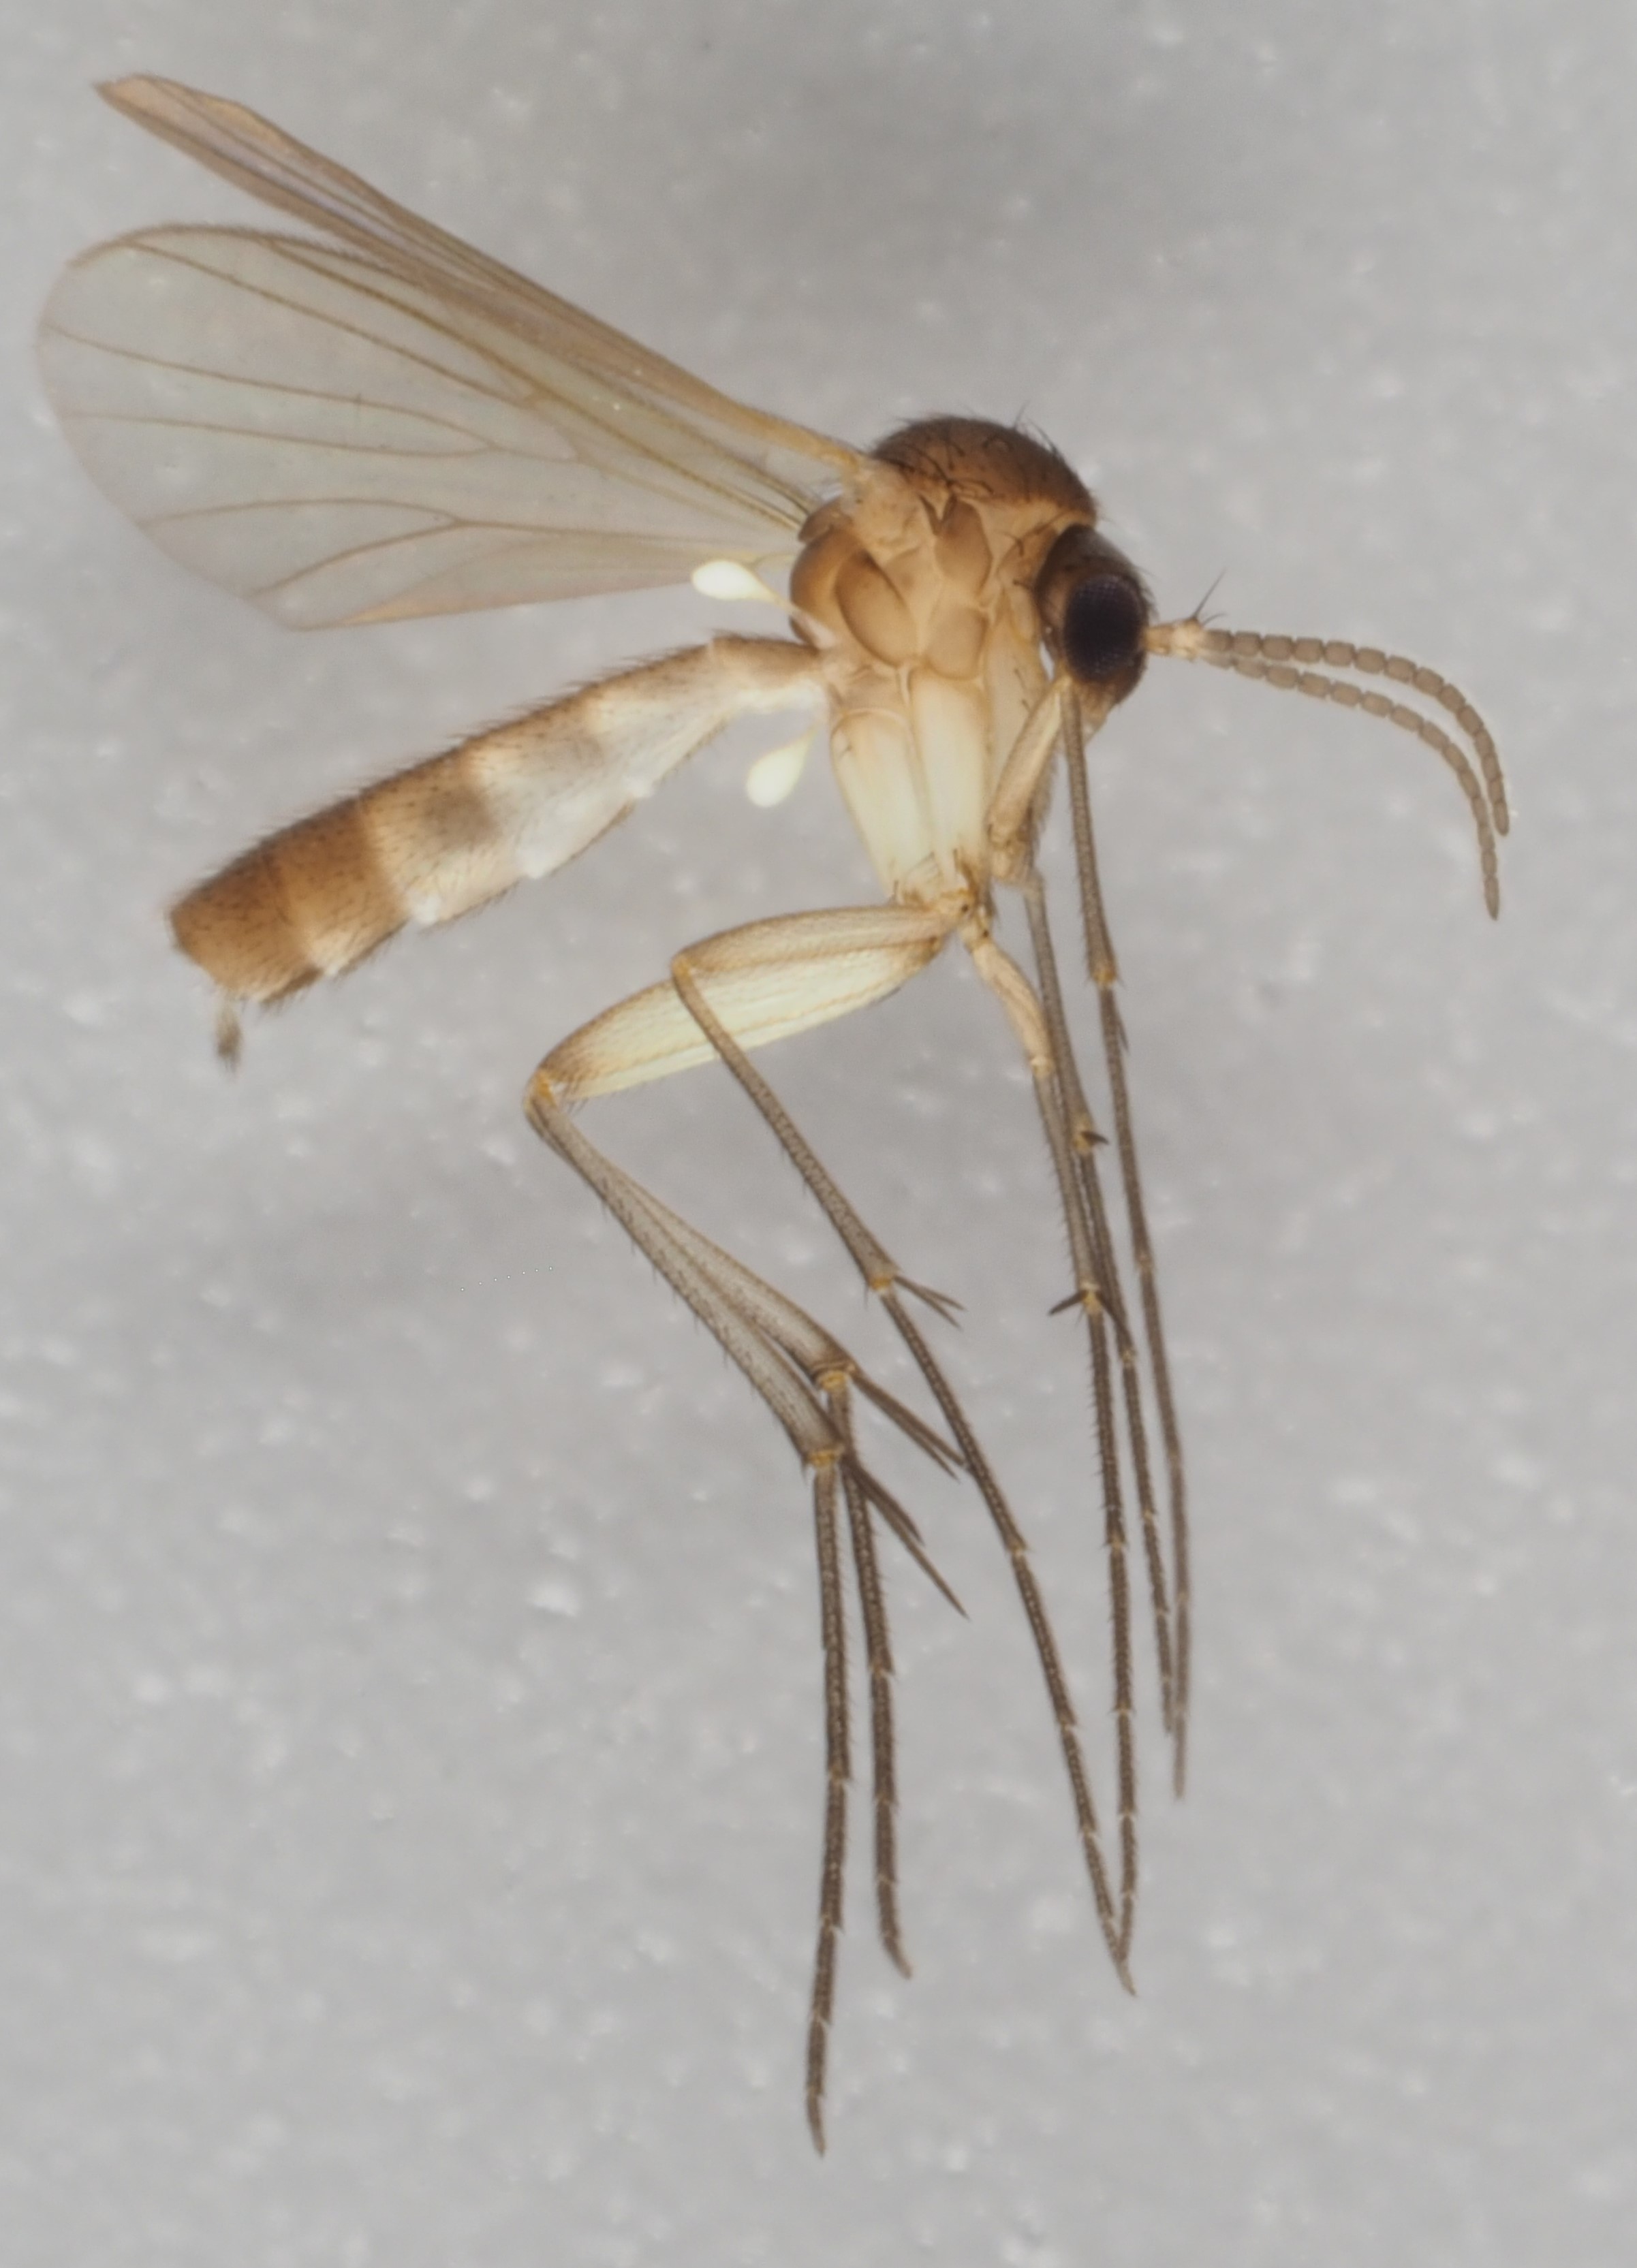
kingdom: Animalia
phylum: Arthropoda
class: Insecta
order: Diptera
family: Mycetophilidae
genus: Anatella
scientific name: Anatella simpatica
